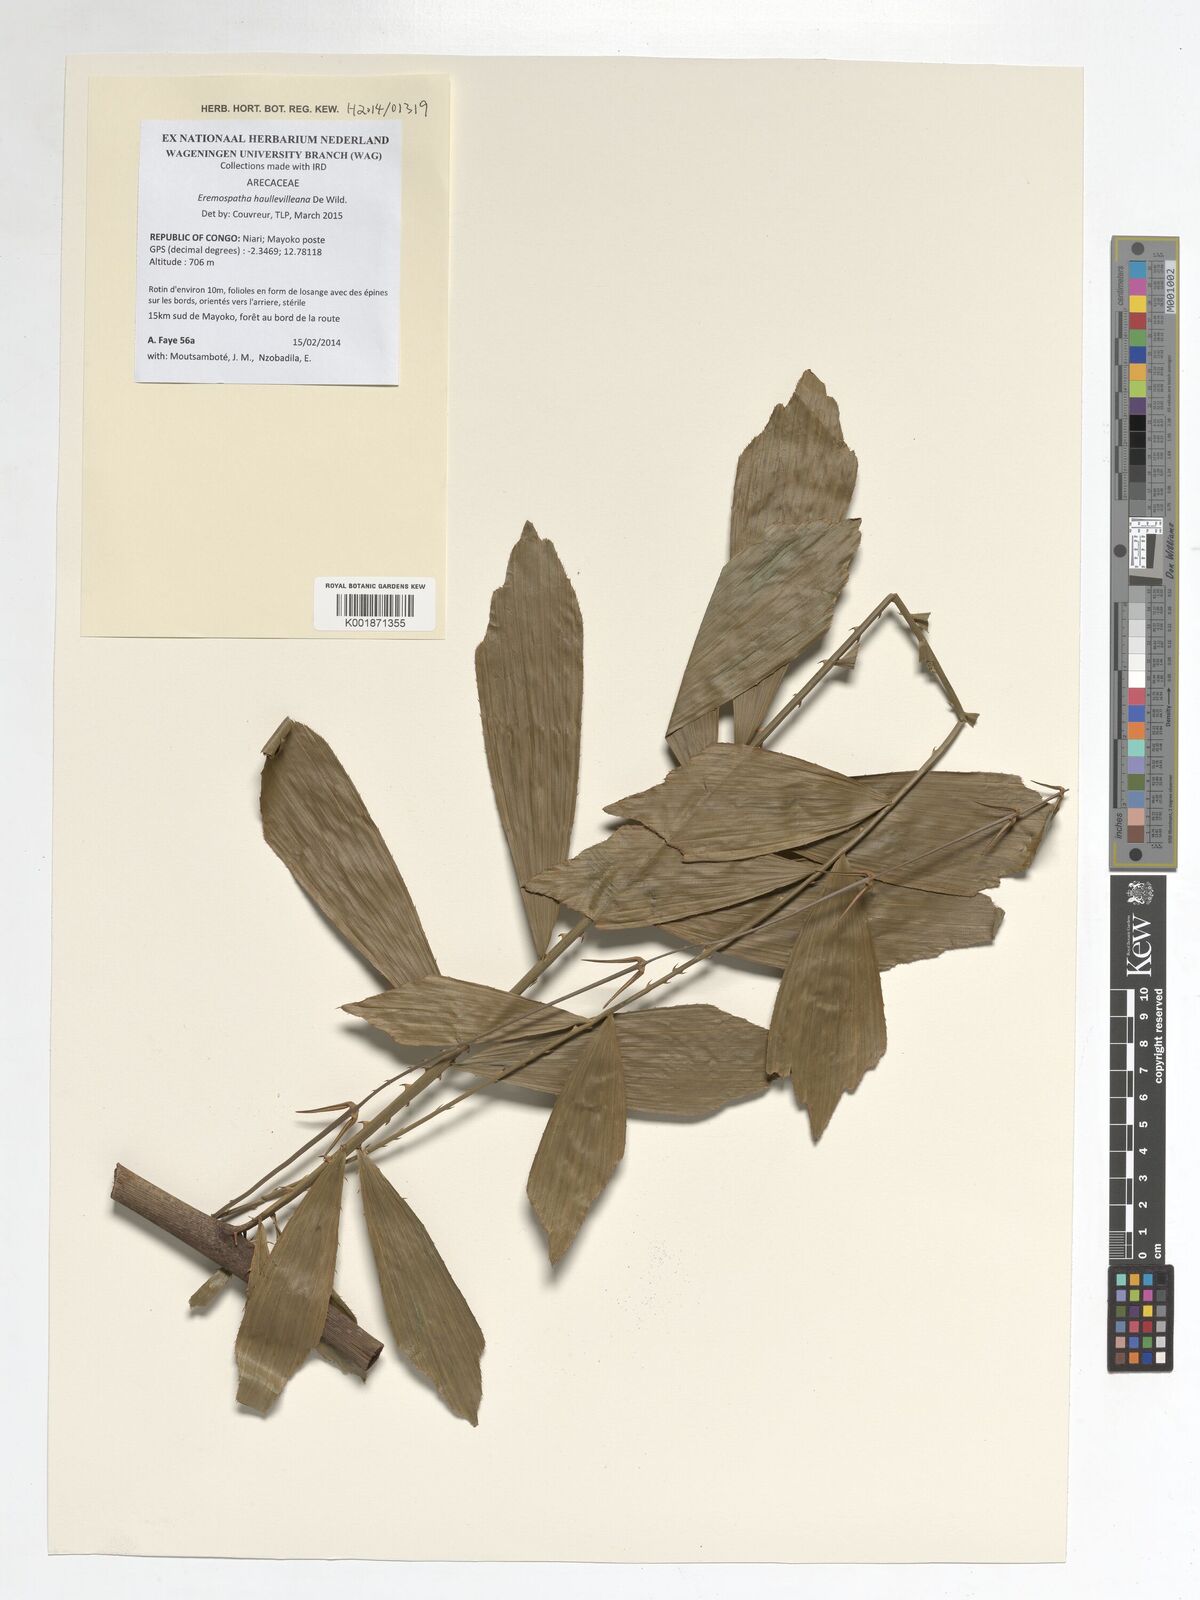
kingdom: Plantae
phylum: Tracheophyta
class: Liliopsida
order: Arecales
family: Arecaceae
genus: Eremospatha
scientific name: Eremospatha haullevilleana
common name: Rattan
